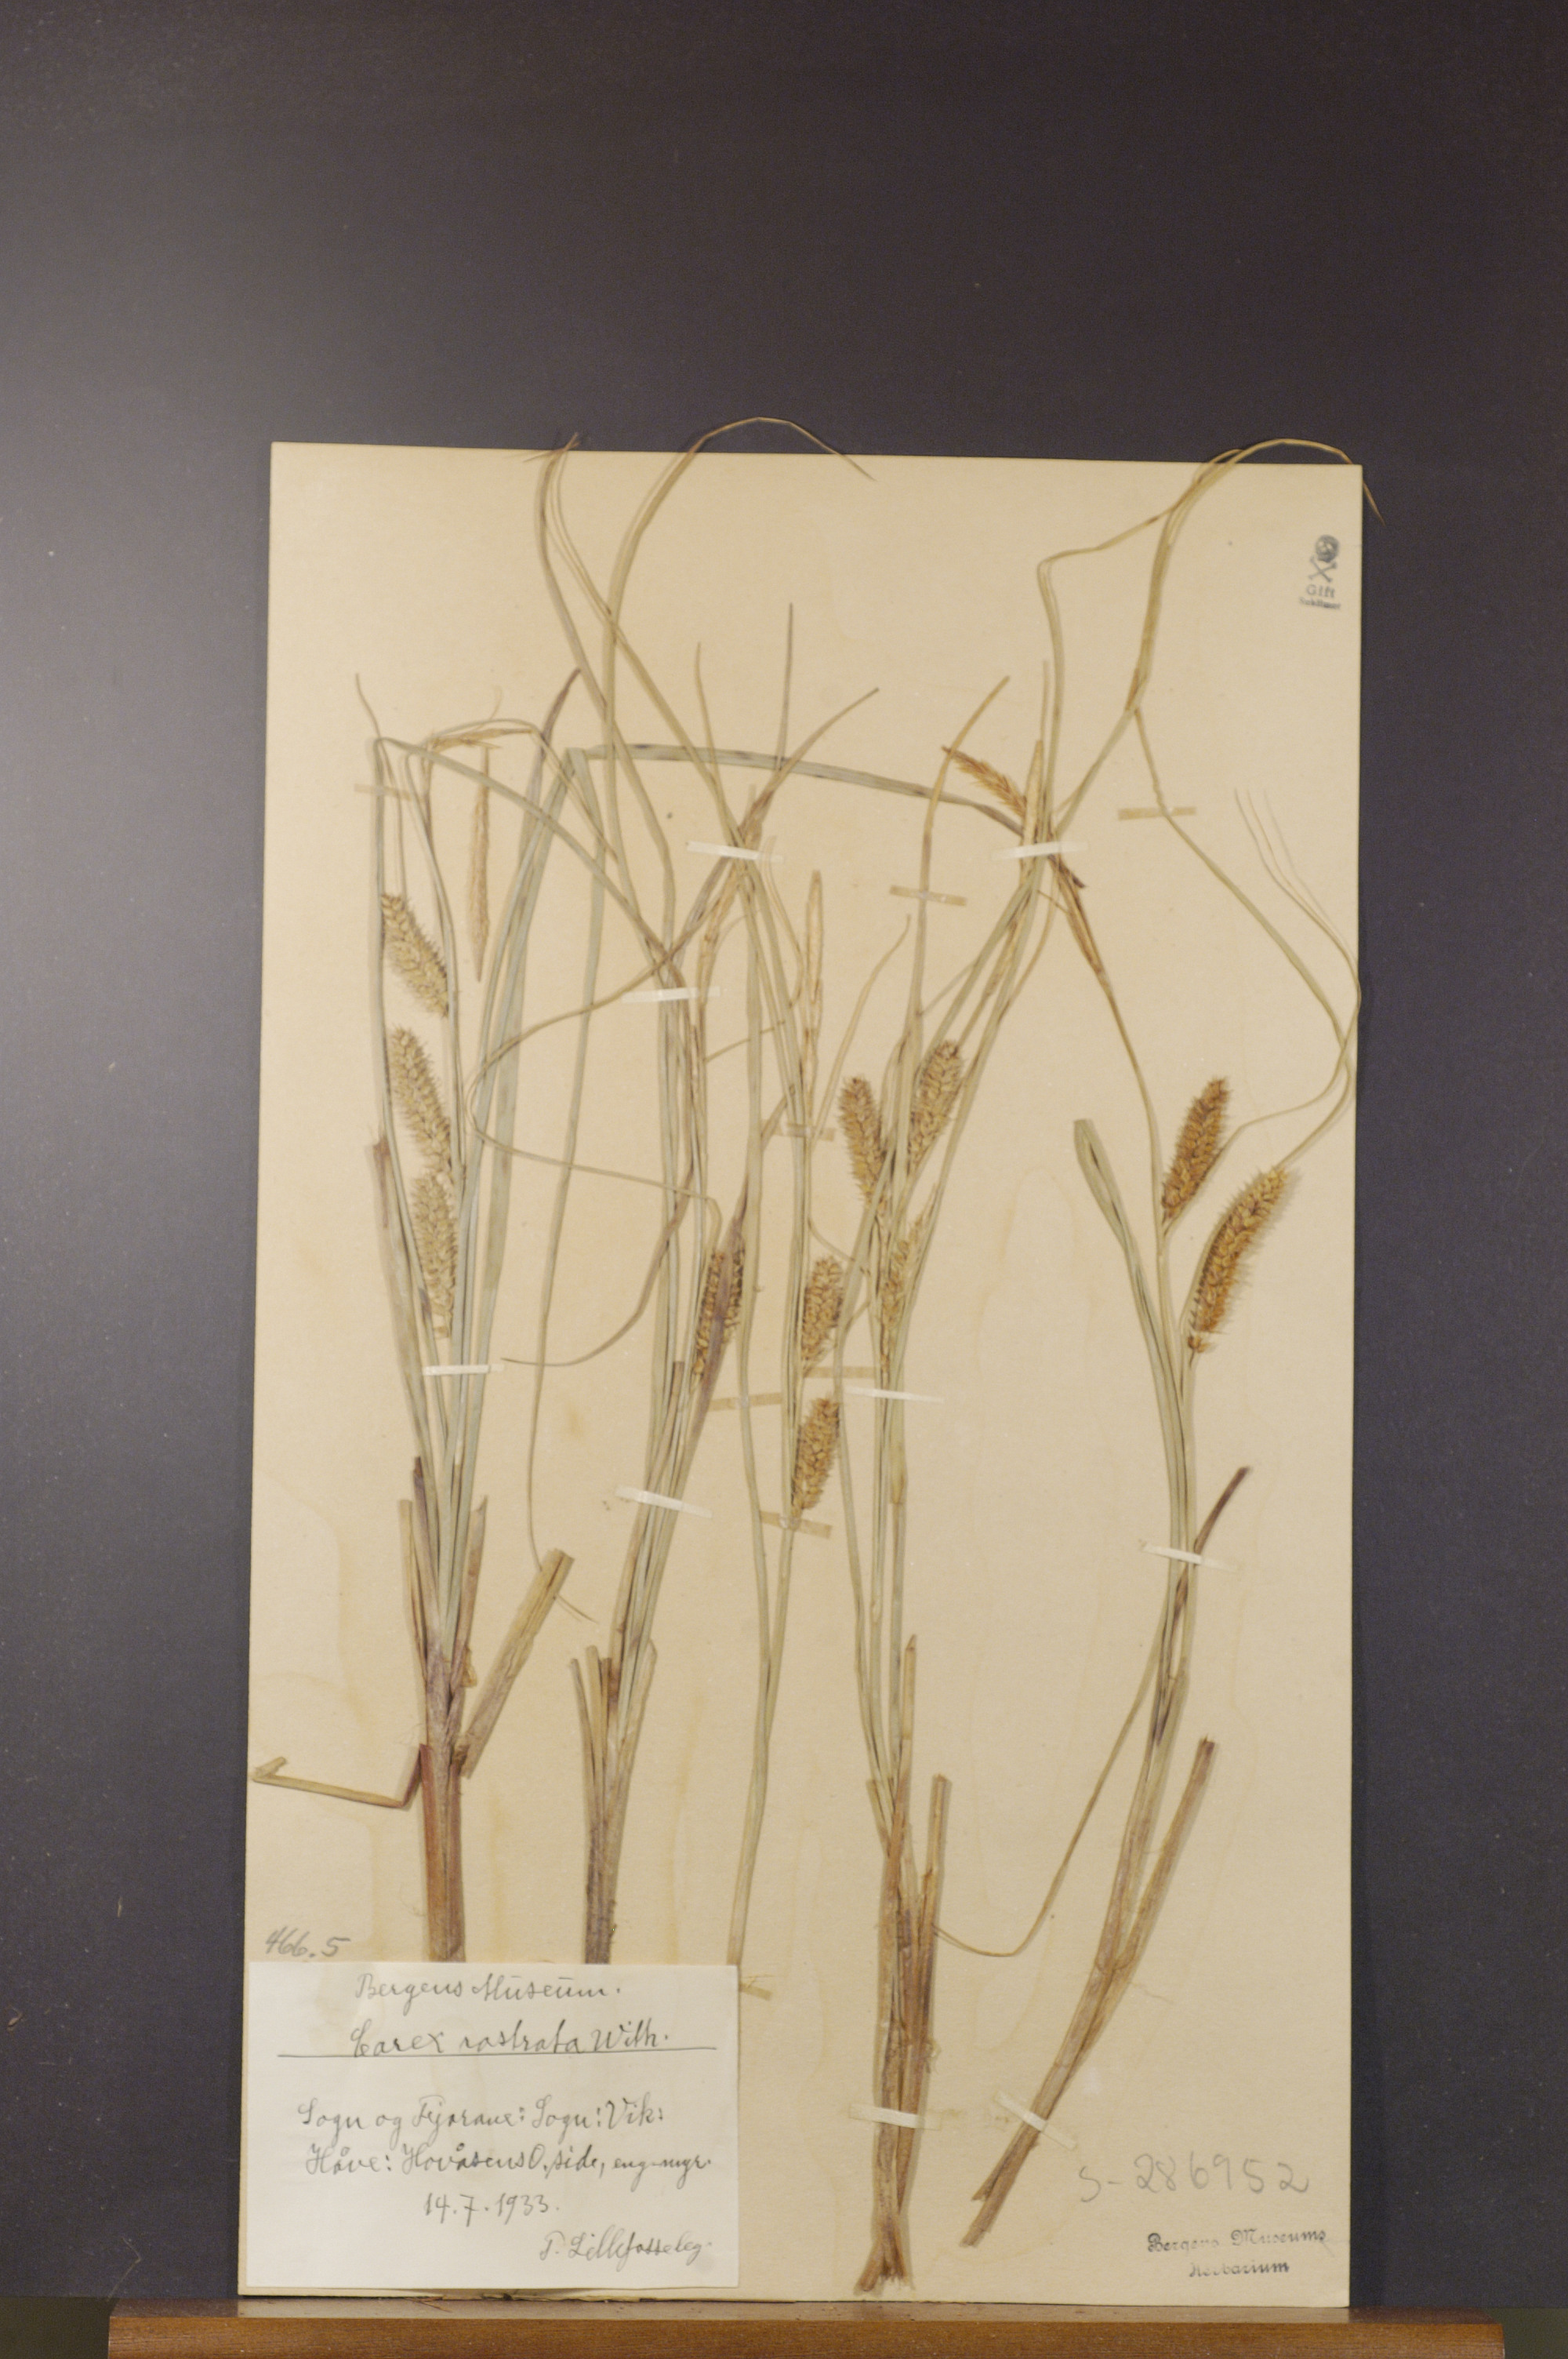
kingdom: Plantae
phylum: Tracheophyta
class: Liliopsida
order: Poales
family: Cyperaceae
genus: Carex
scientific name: Carex rostrata
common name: Bottle sedge
